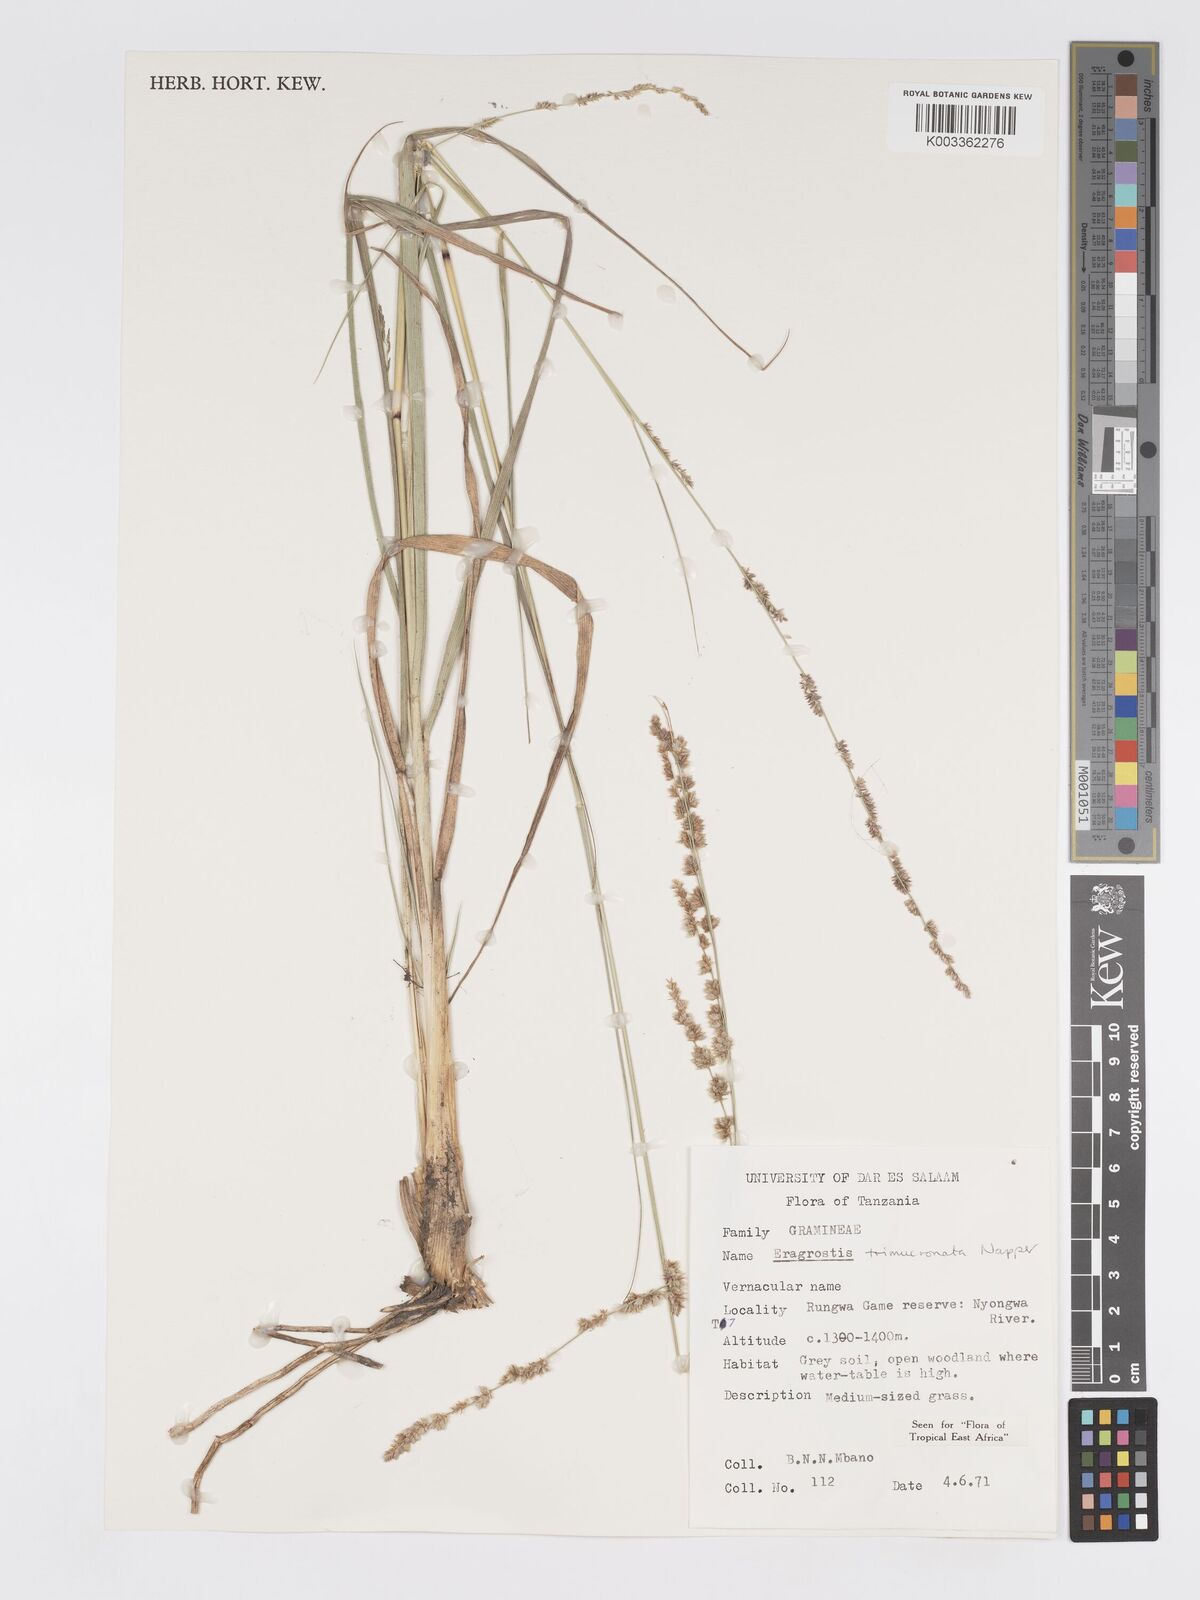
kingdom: Plantae
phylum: Tracheophyta
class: Liliopsida
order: Poales
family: Poaceae
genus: Eragrostis
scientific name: Eragrostis castellaneana
